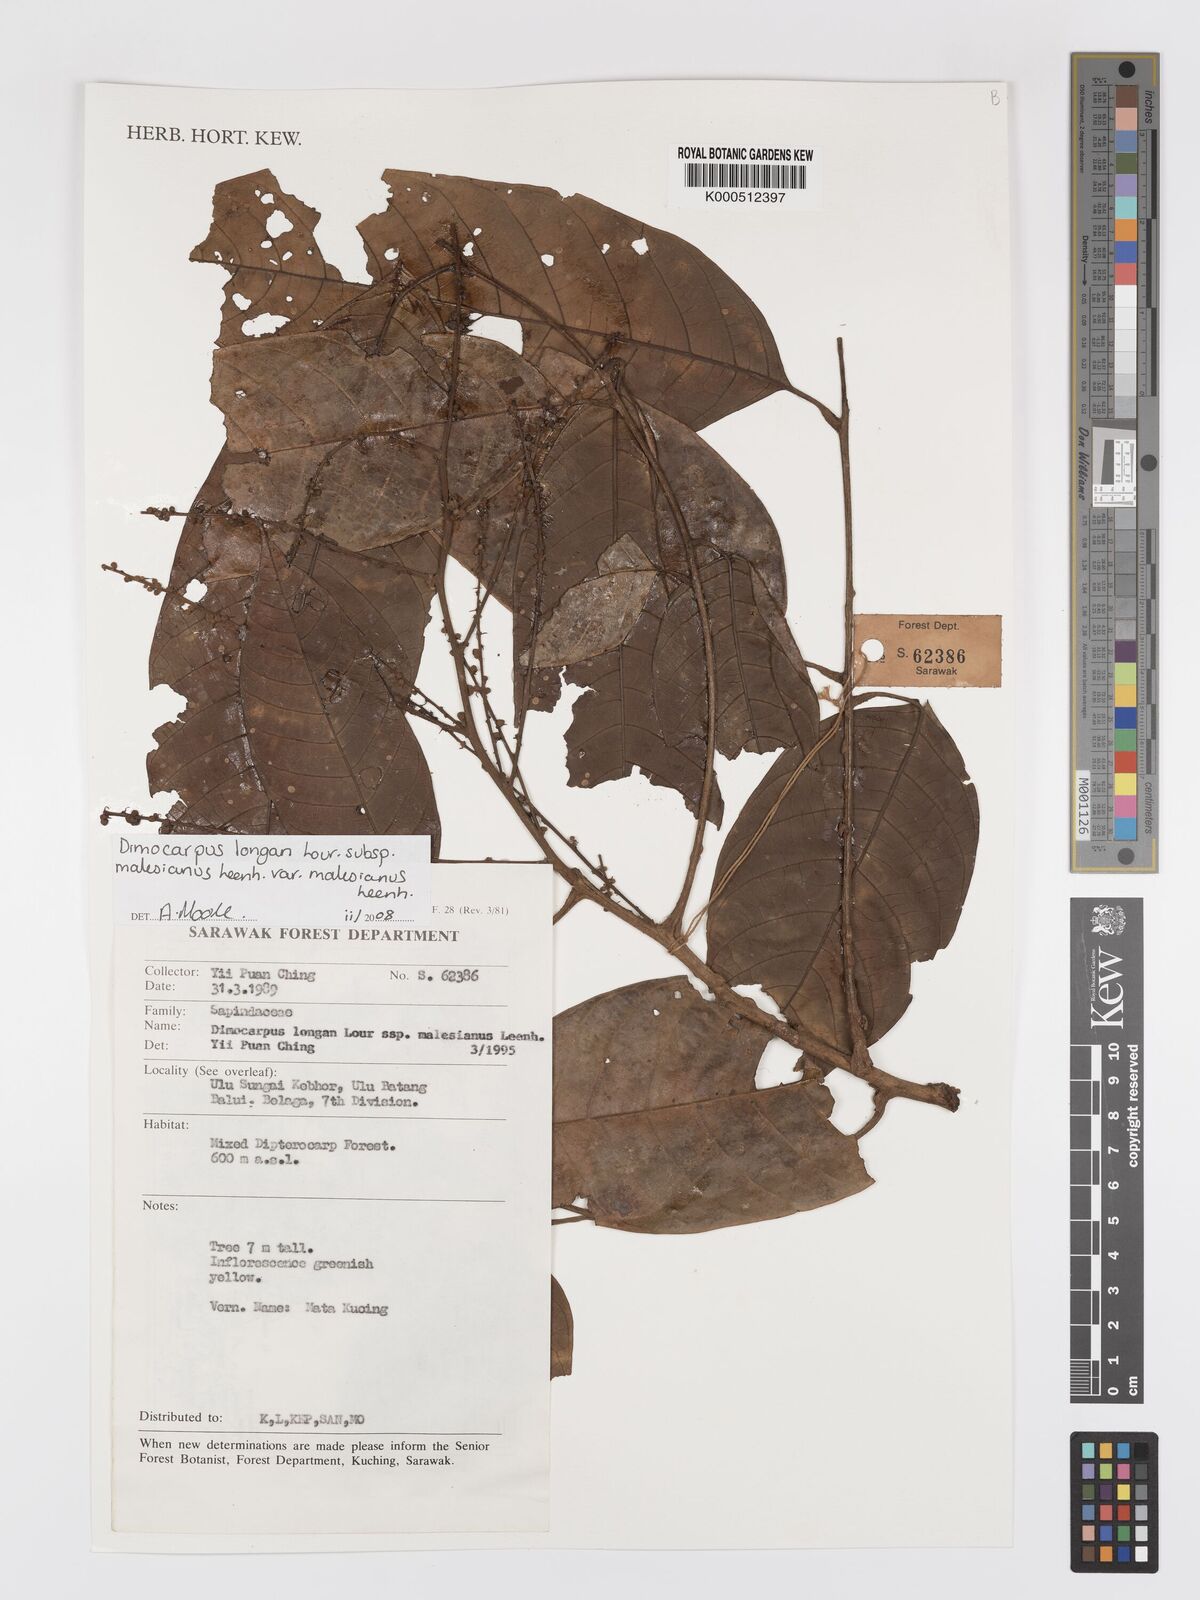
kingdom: Plantae
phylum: Tracheophyta
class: Magnoliopsida
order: Sapindales
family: Sapindaceae
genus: Dimocarpus
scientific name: Dimocarpus malesianus
